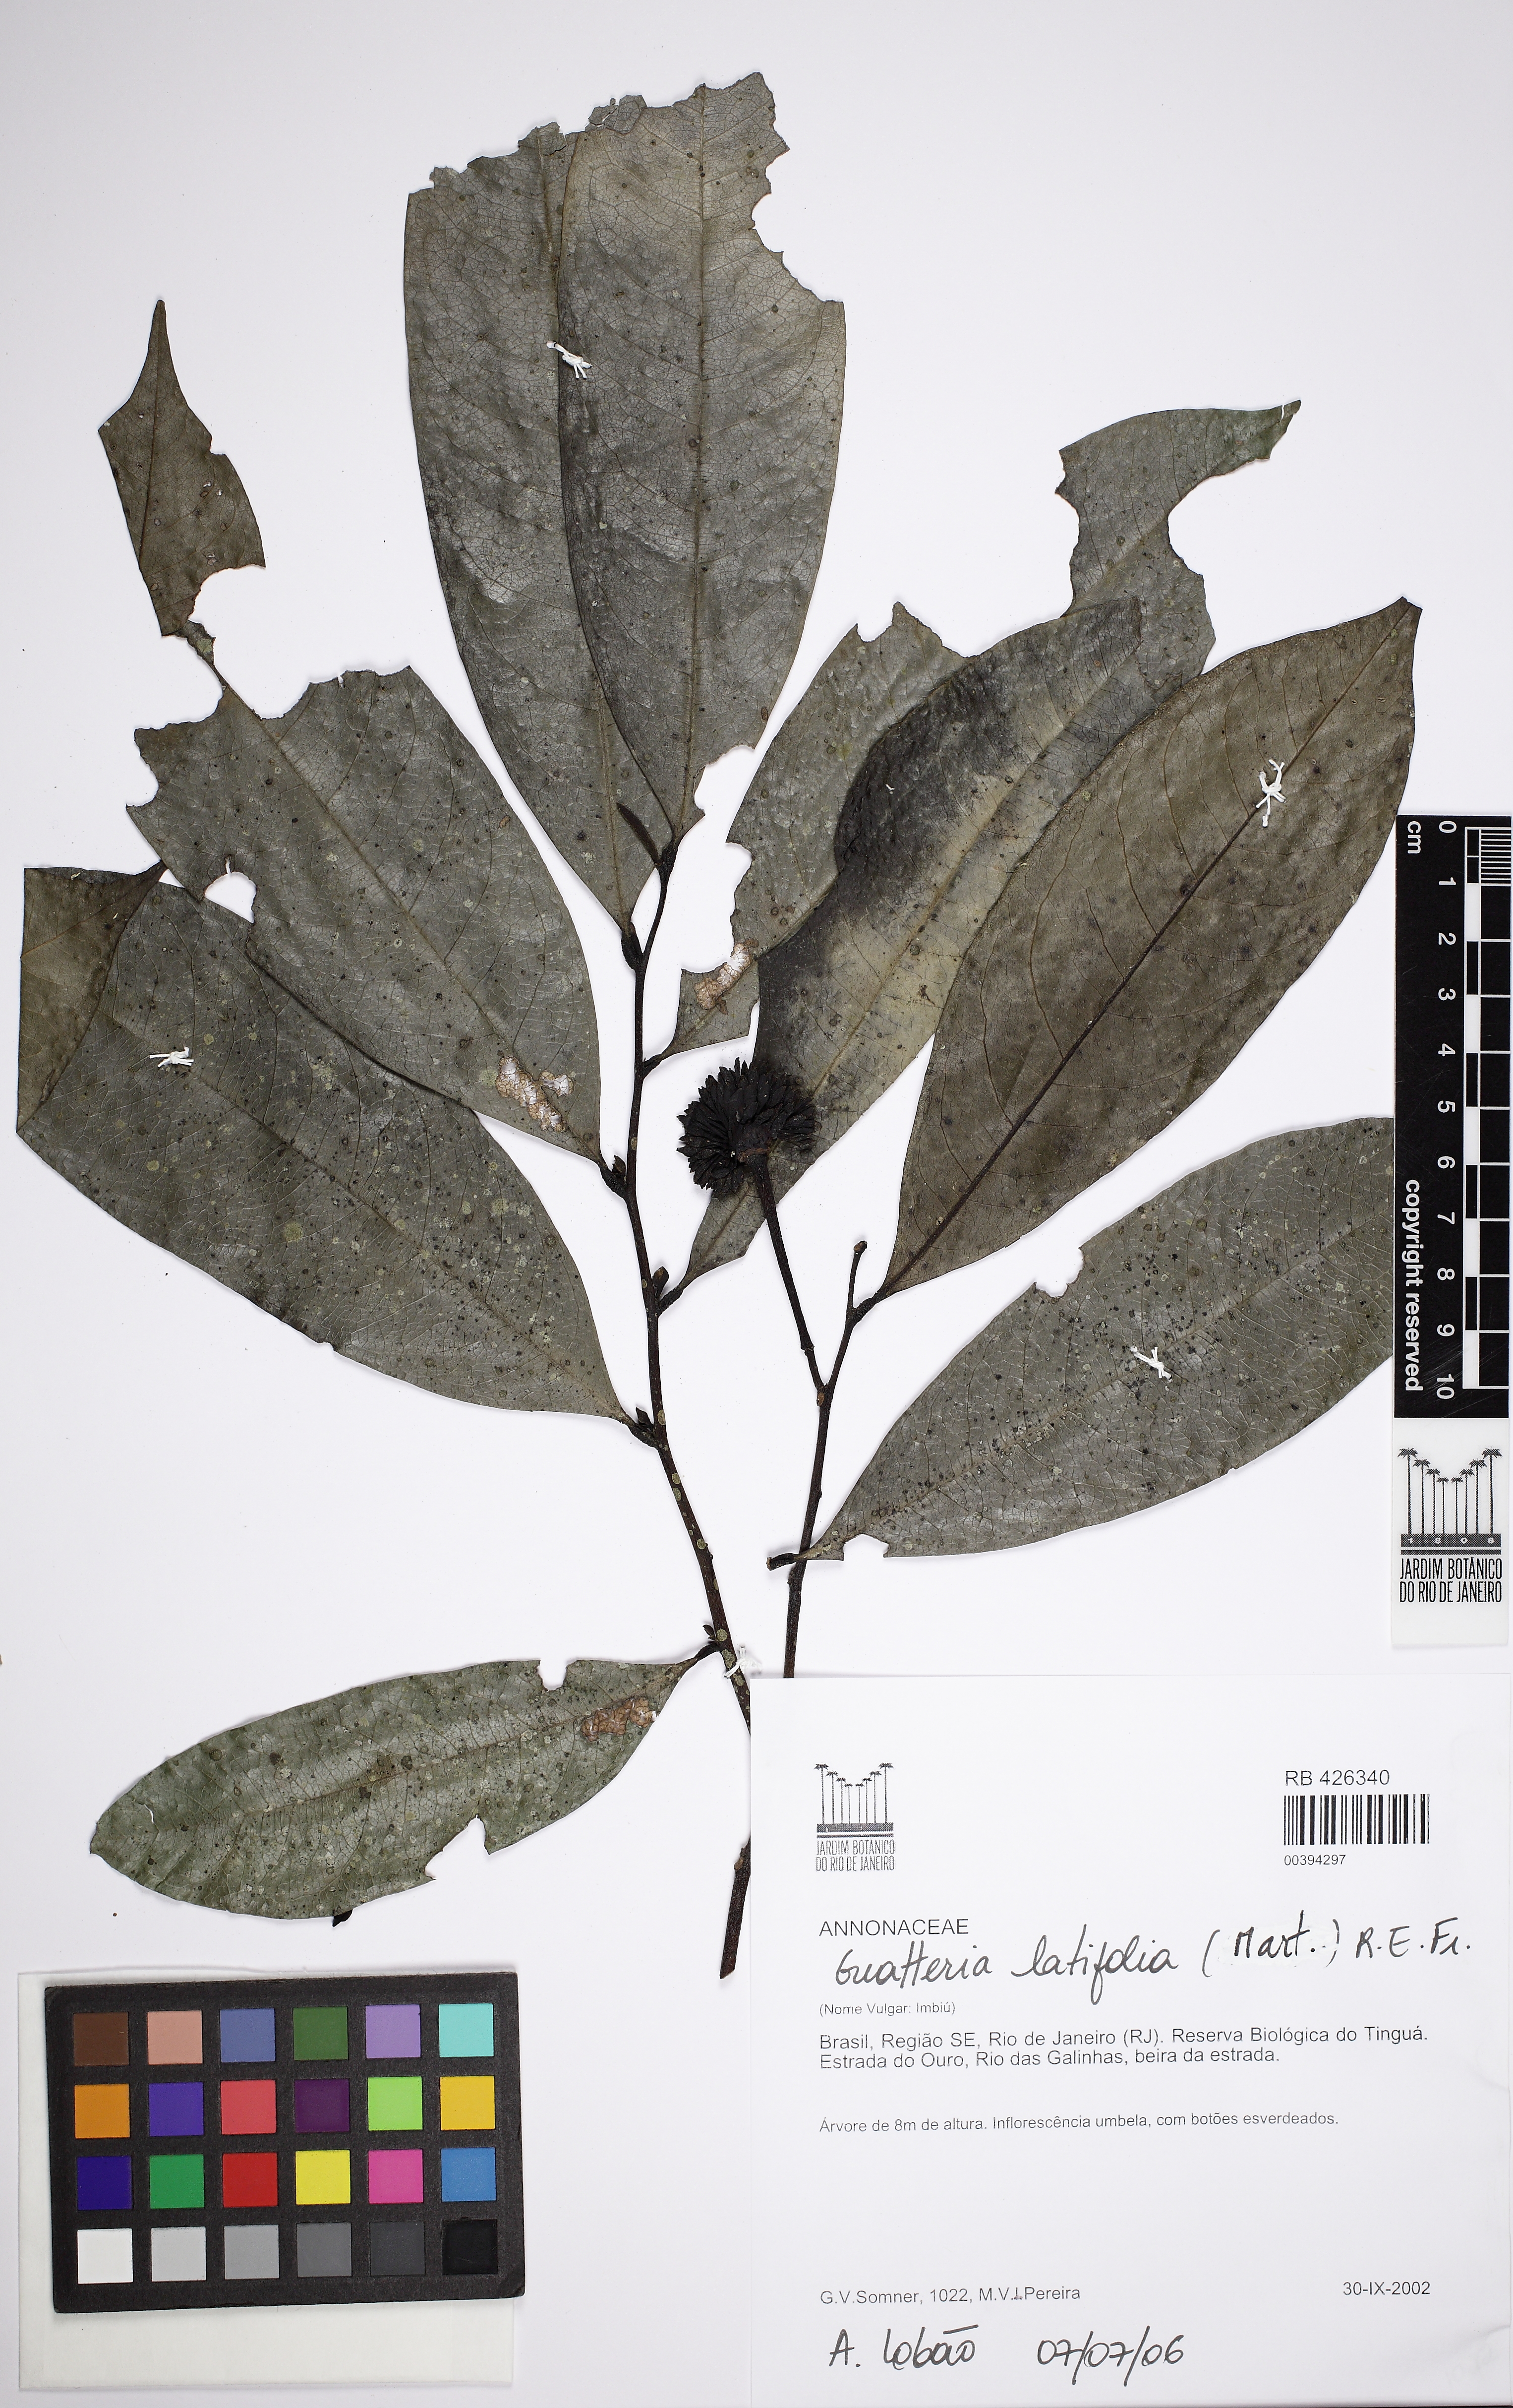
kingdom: Plantae
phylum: Tracheophyta
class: Magnoliopsida
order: Magnoliales
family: Annonaceae
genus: Guatteria
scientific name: Guatteria latifolia
